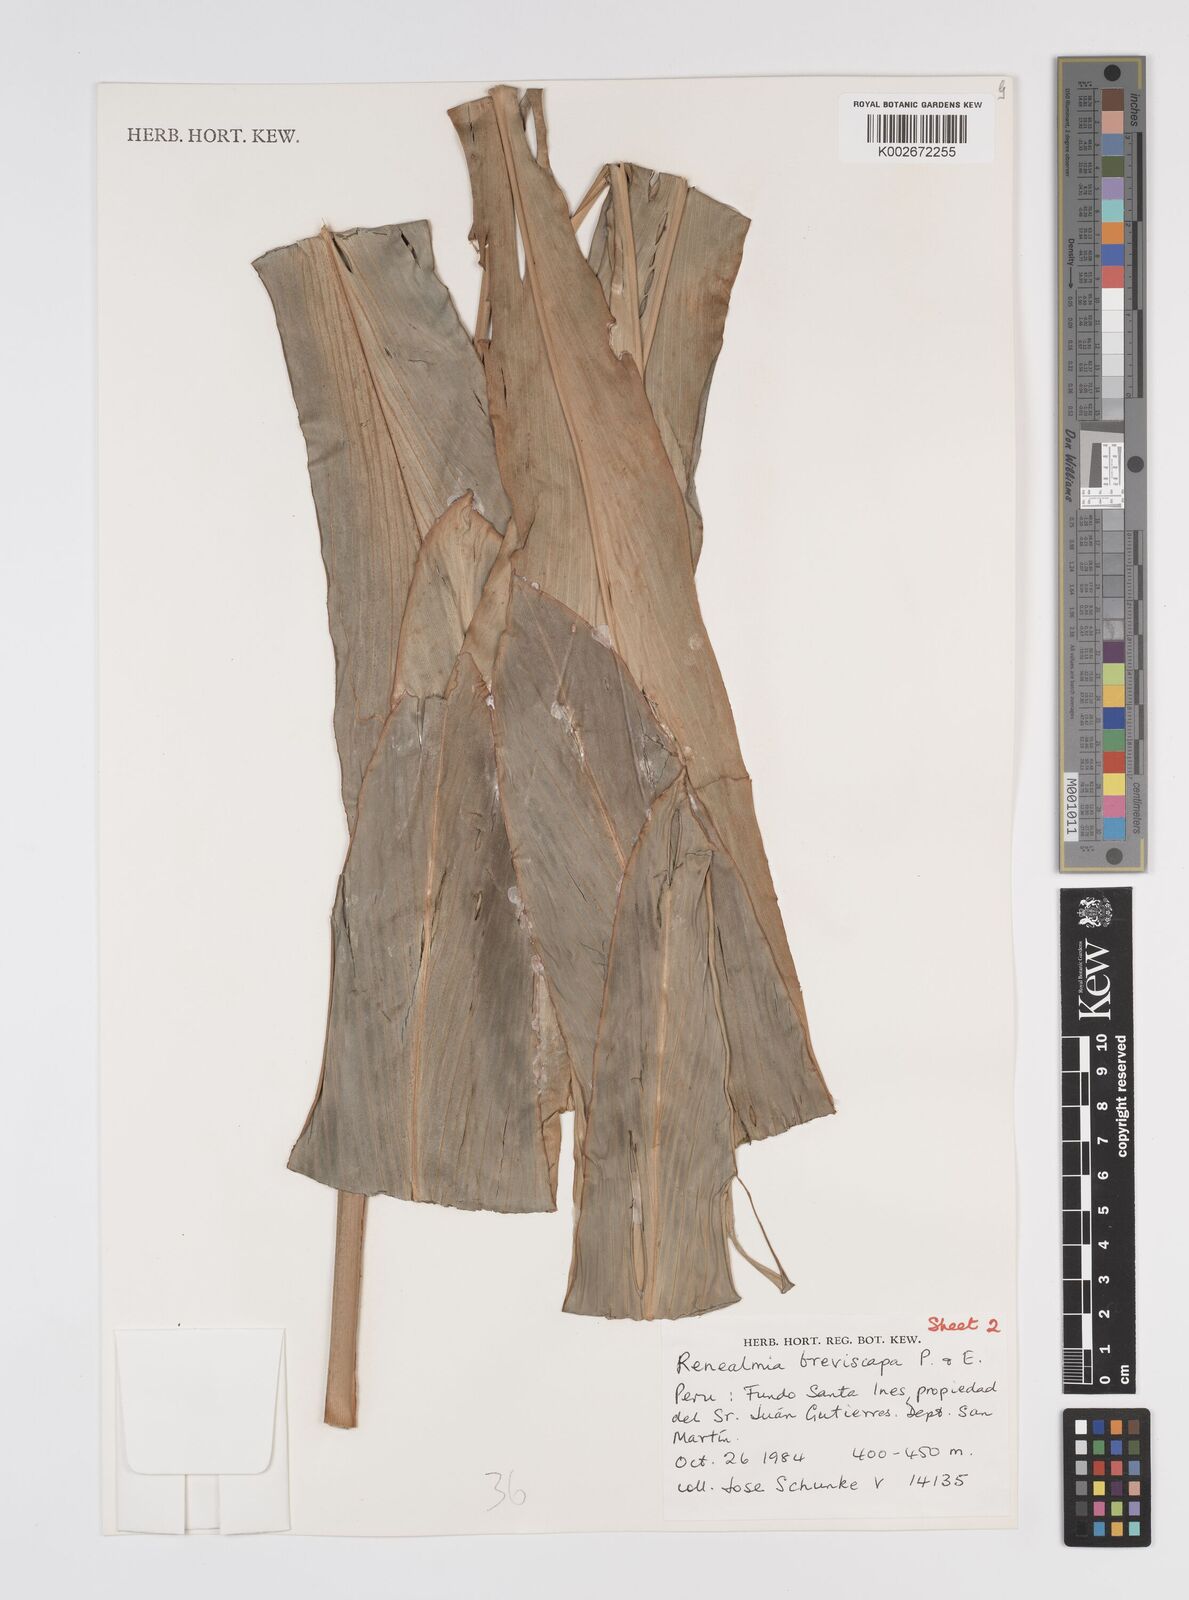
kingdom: Plantae
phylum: Tracheophyta
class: Liliopsida
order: Zingiberales
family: Zingiberaceae
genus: Renealmia
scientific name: Renealmia breviscapa
